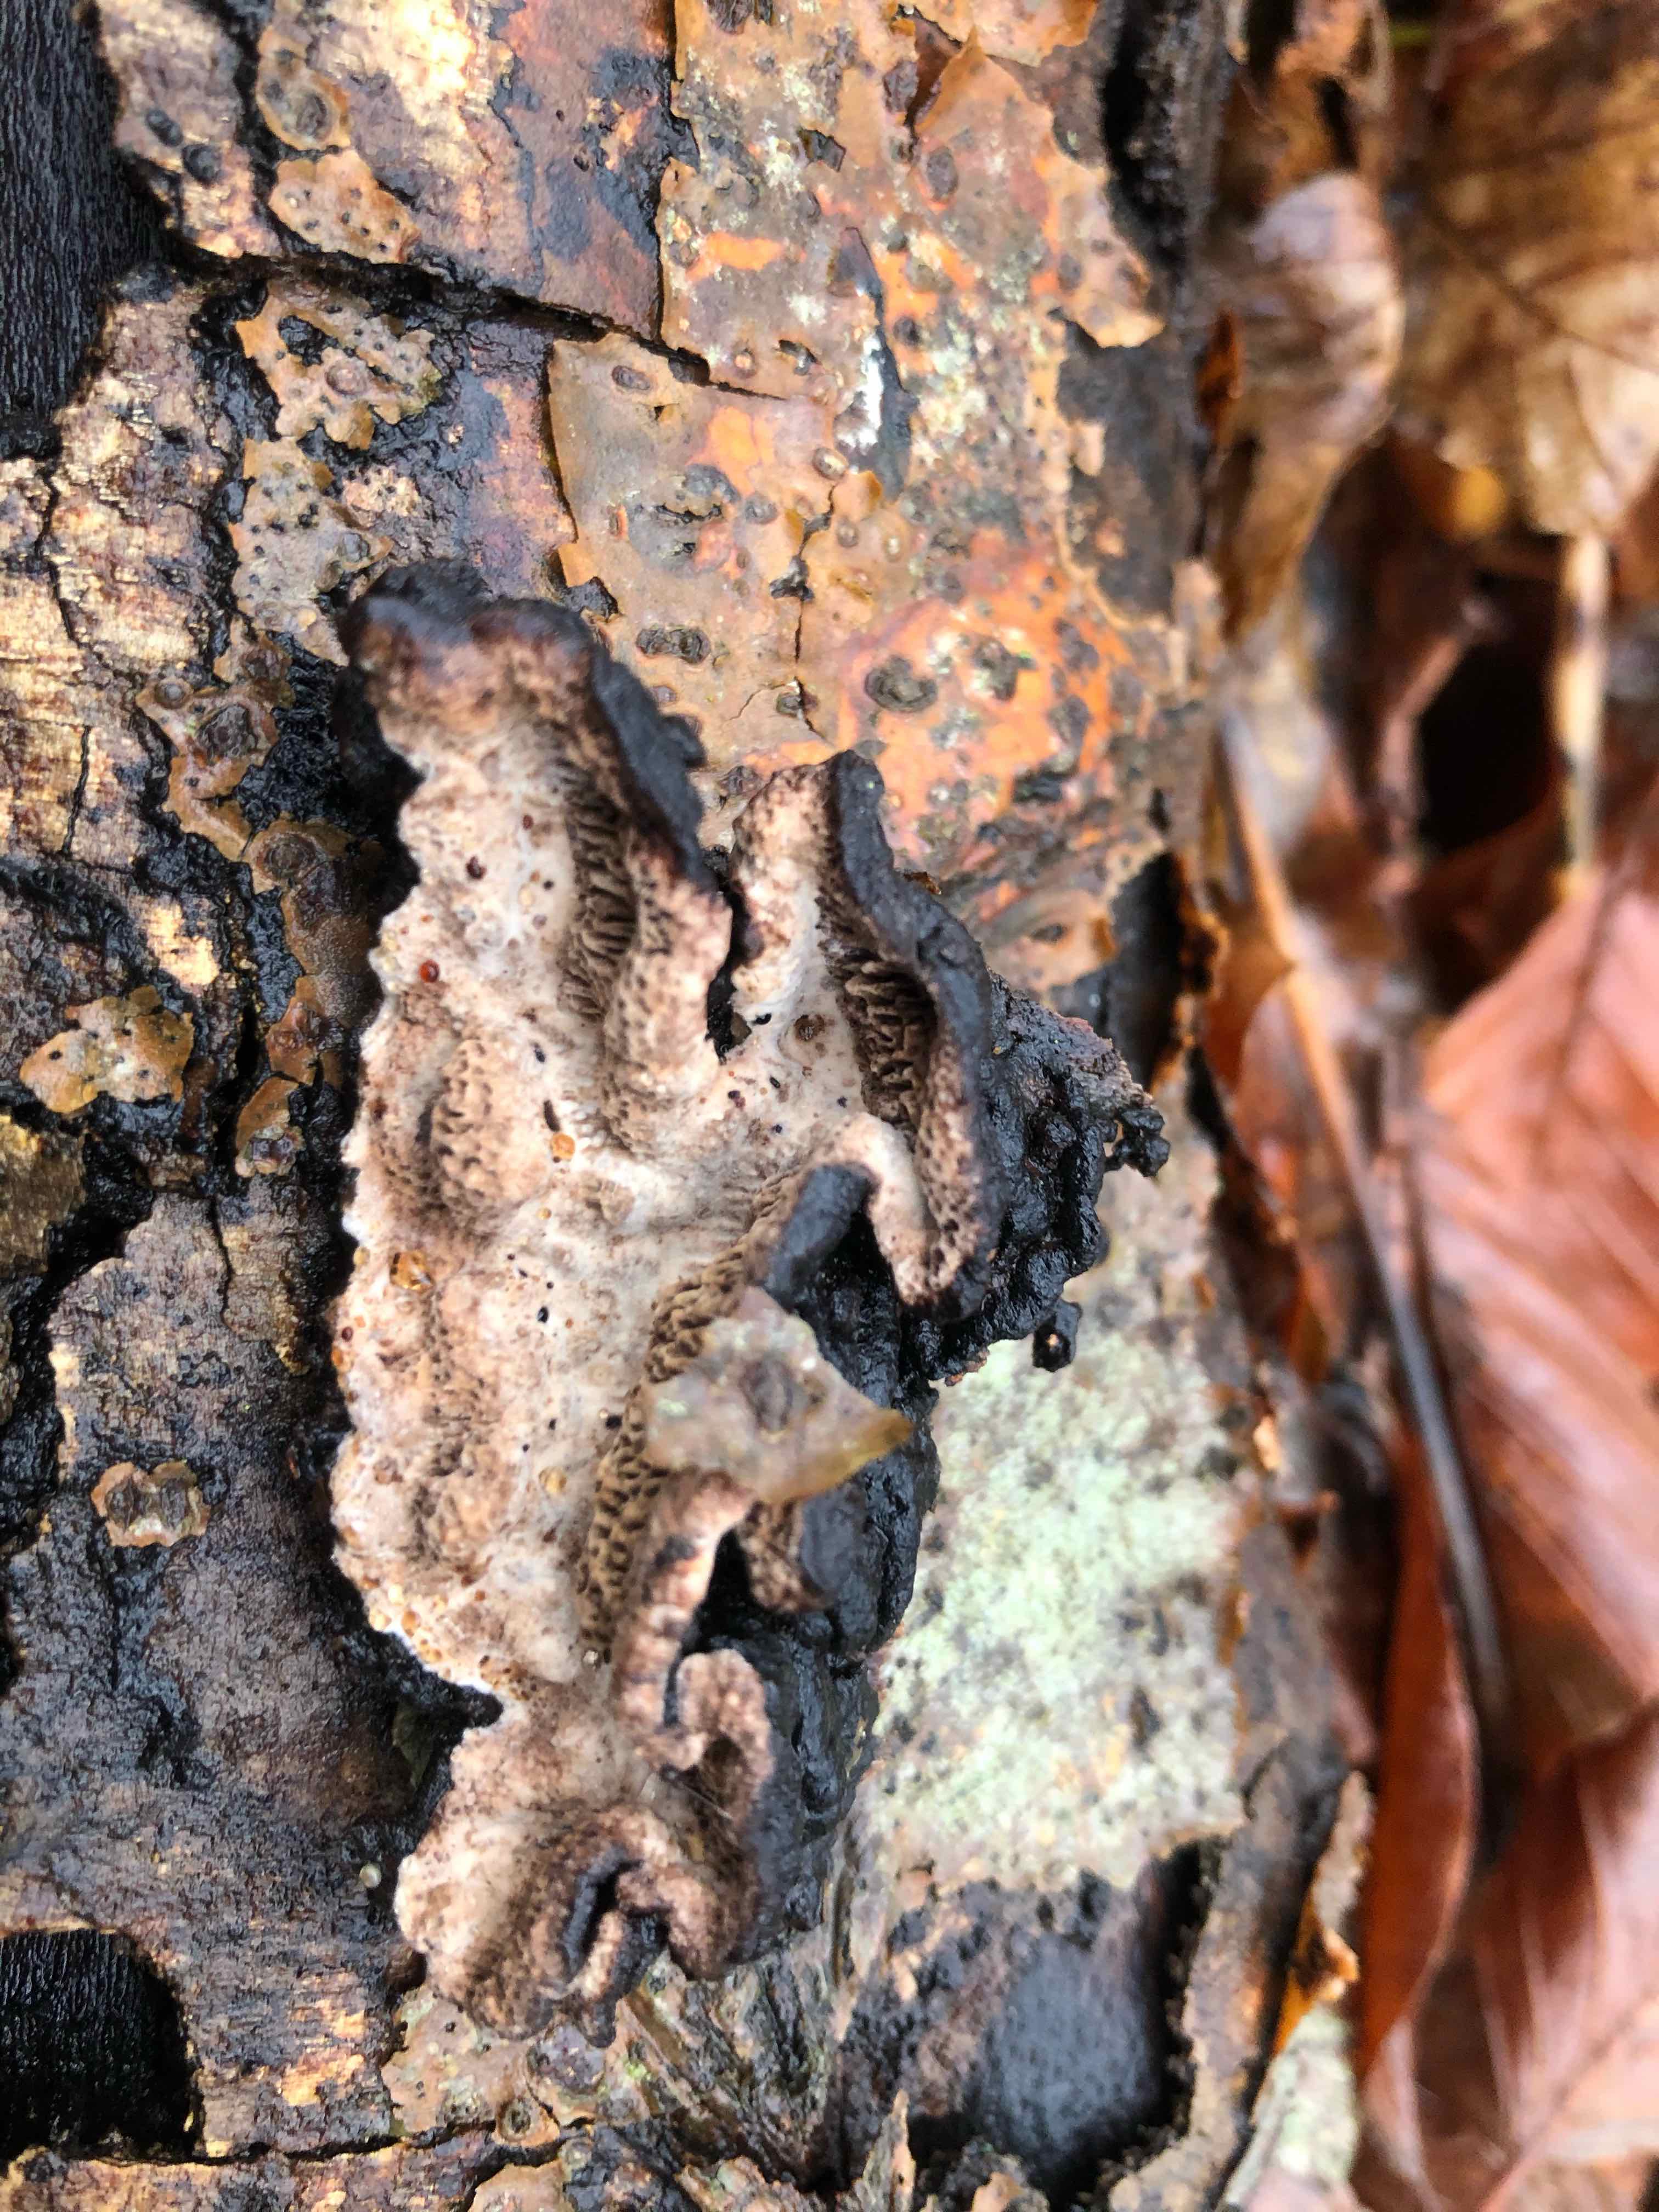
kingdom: Fungi
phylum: Basidiomycota
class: Agaricomycetes
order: Polyporales
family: Polyporaceae
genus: Podofomes
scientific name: Podofomes mollis
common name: blød begporesvamp
